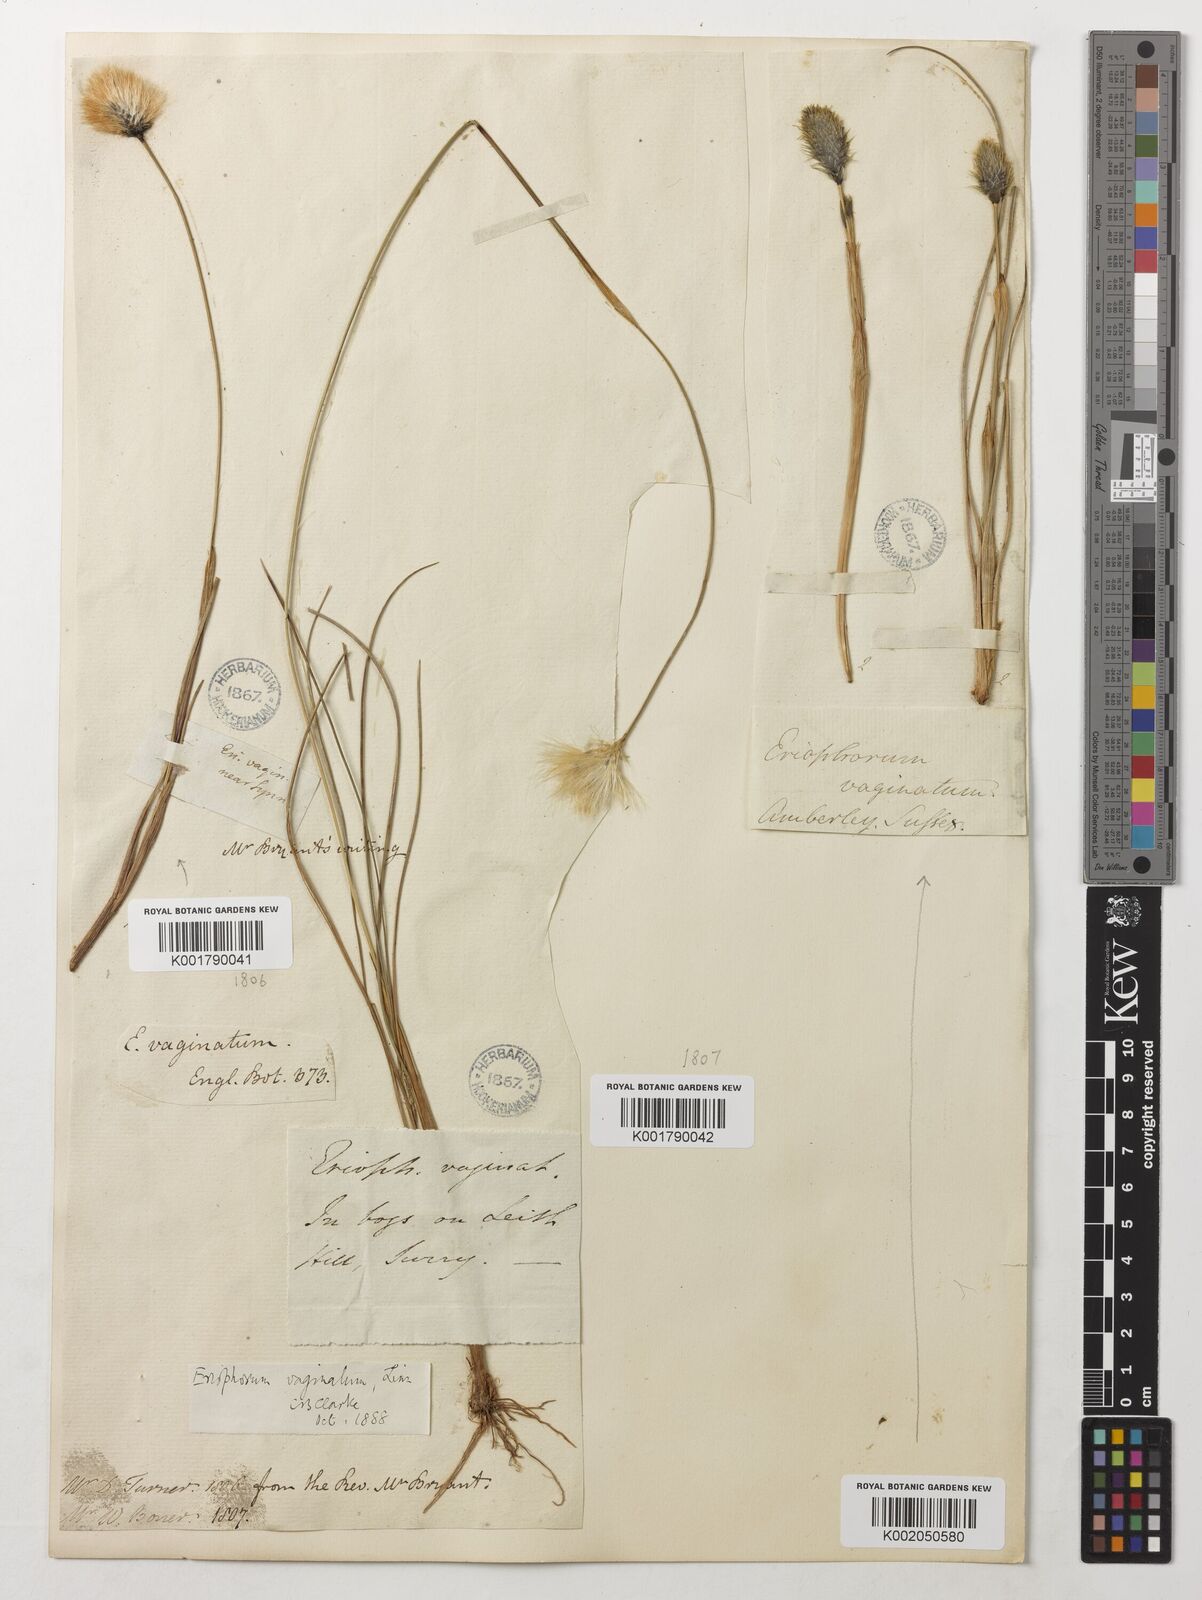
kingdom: Plantae
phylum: Tracheophyta
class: Liliopsida
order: Poales
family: Cyperaceae
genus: Eriophorum
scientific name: Eriophorum vaginatum
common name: Hare's-tail cottongrass
